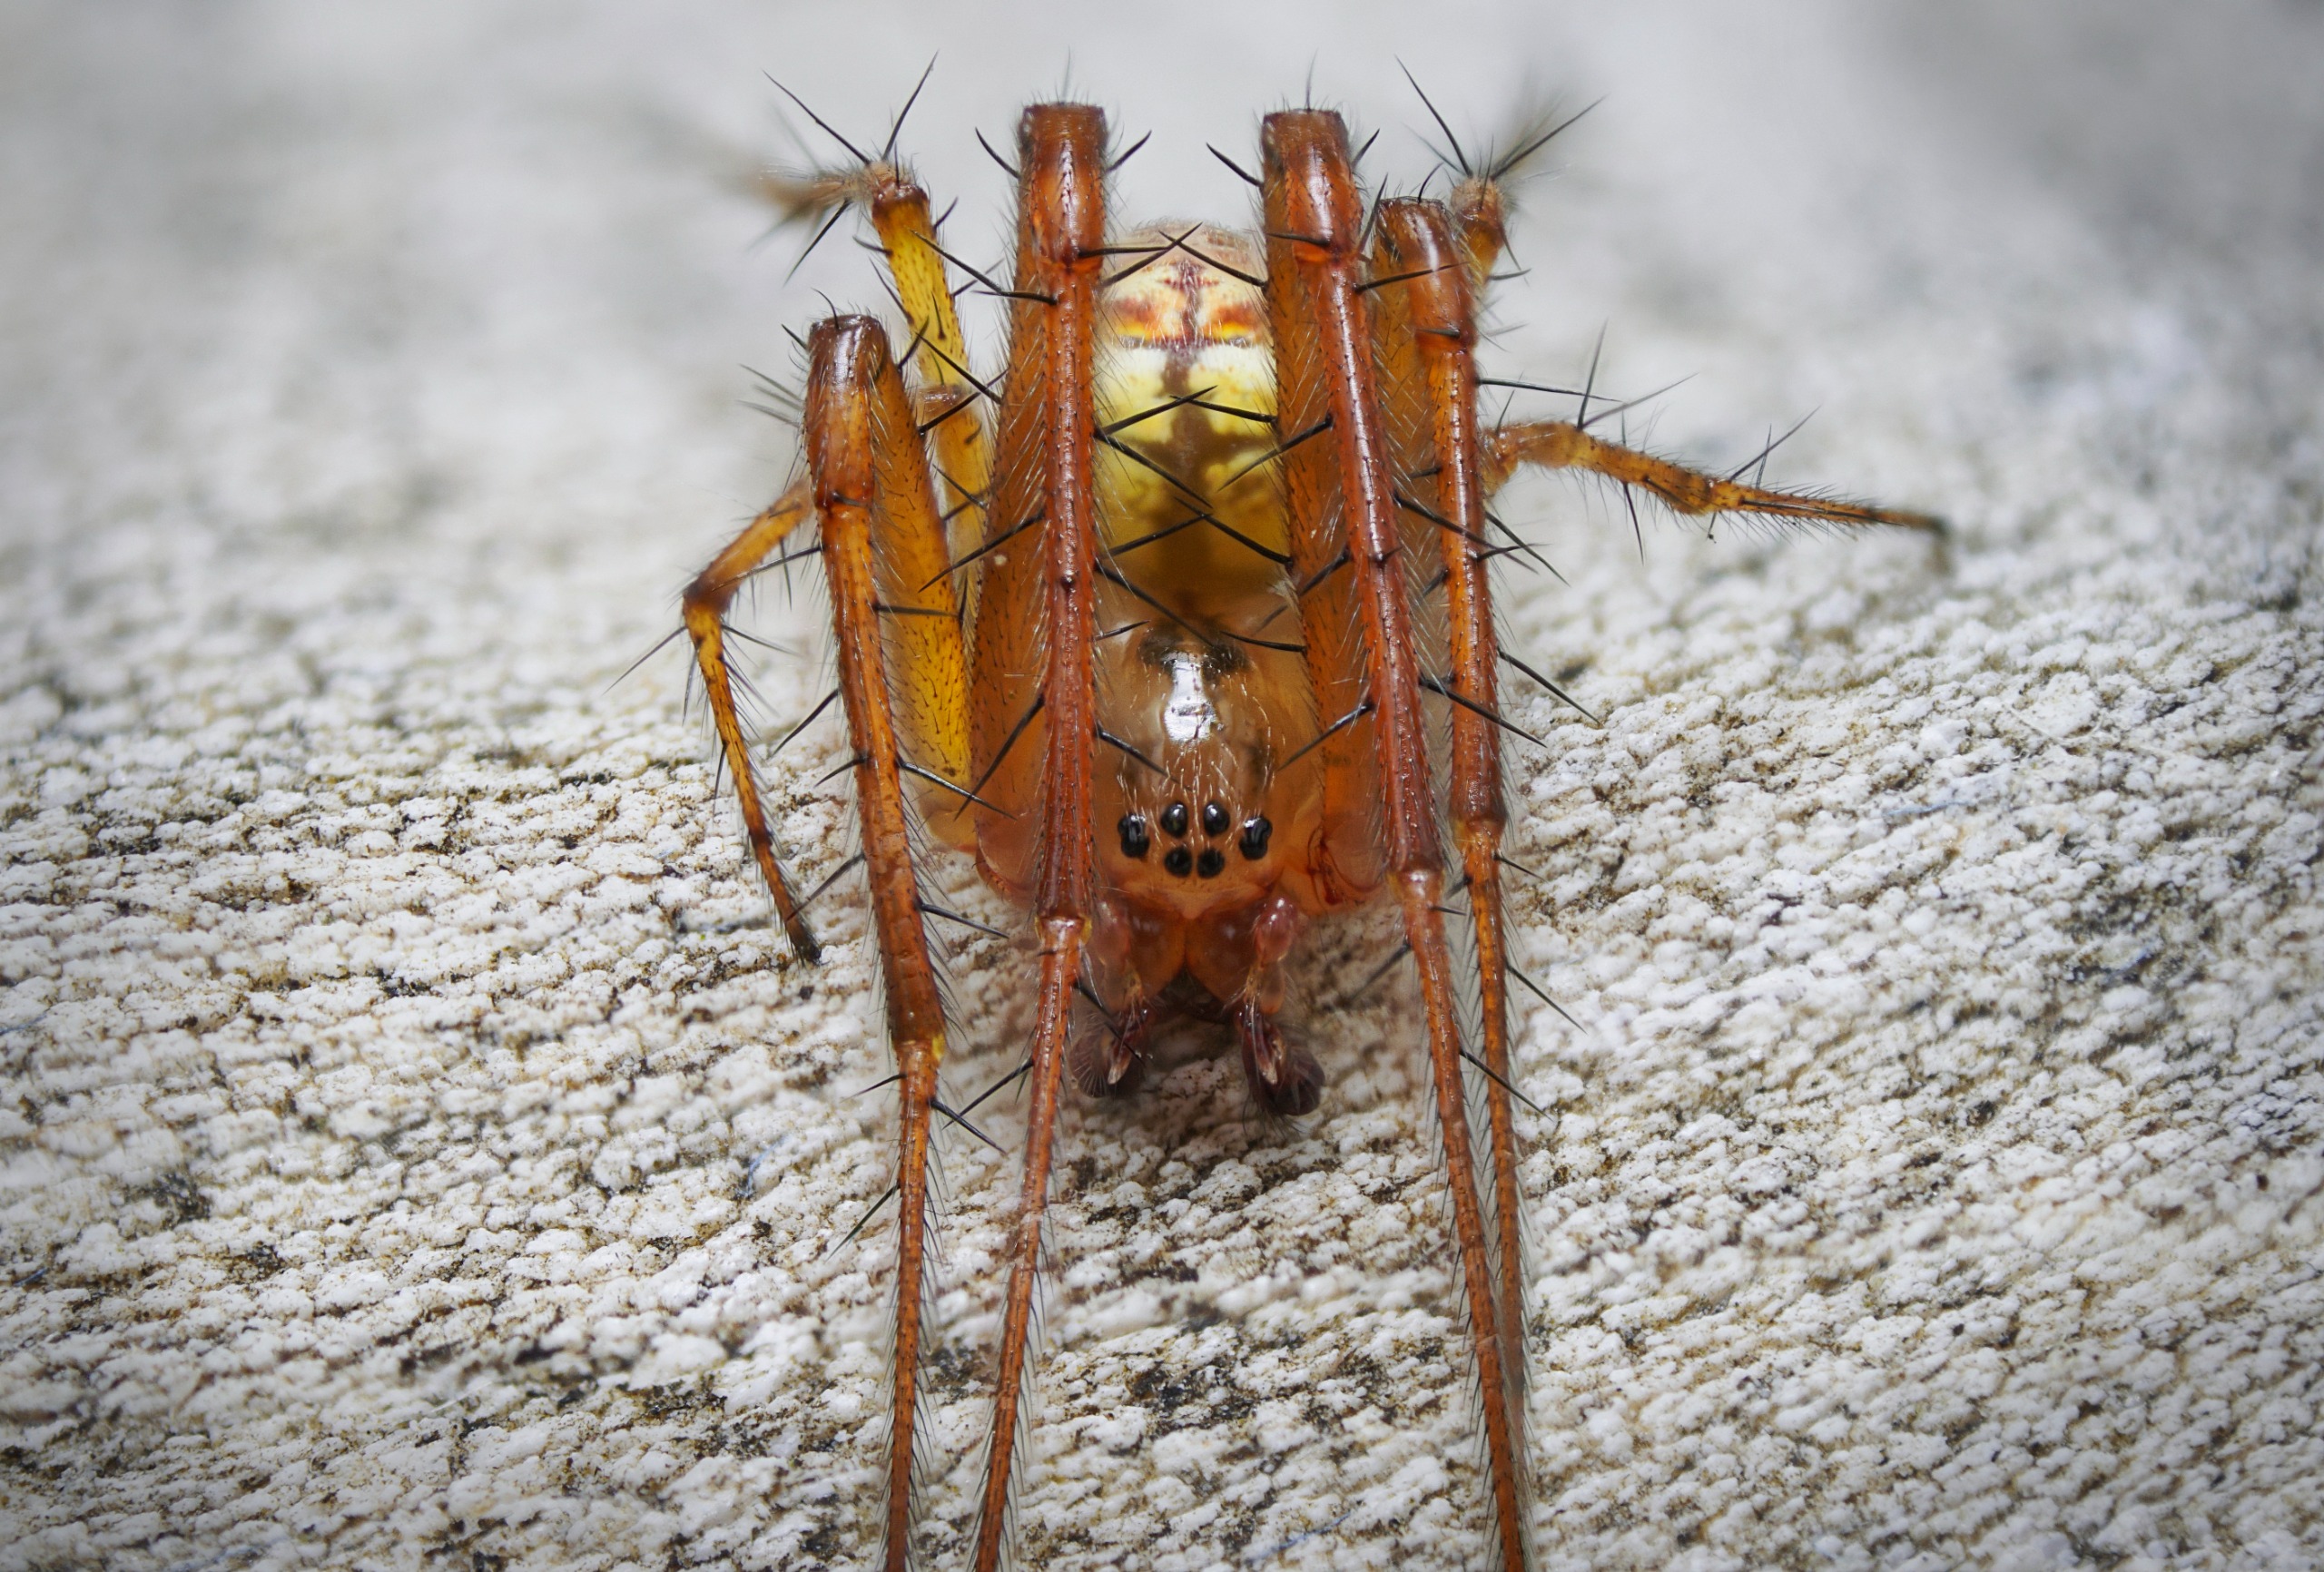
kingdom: Animalia
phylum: Arthropoda
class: Arachnida
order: Araneae
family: Tetragnathidae
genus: Metellina
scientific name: Metellina
